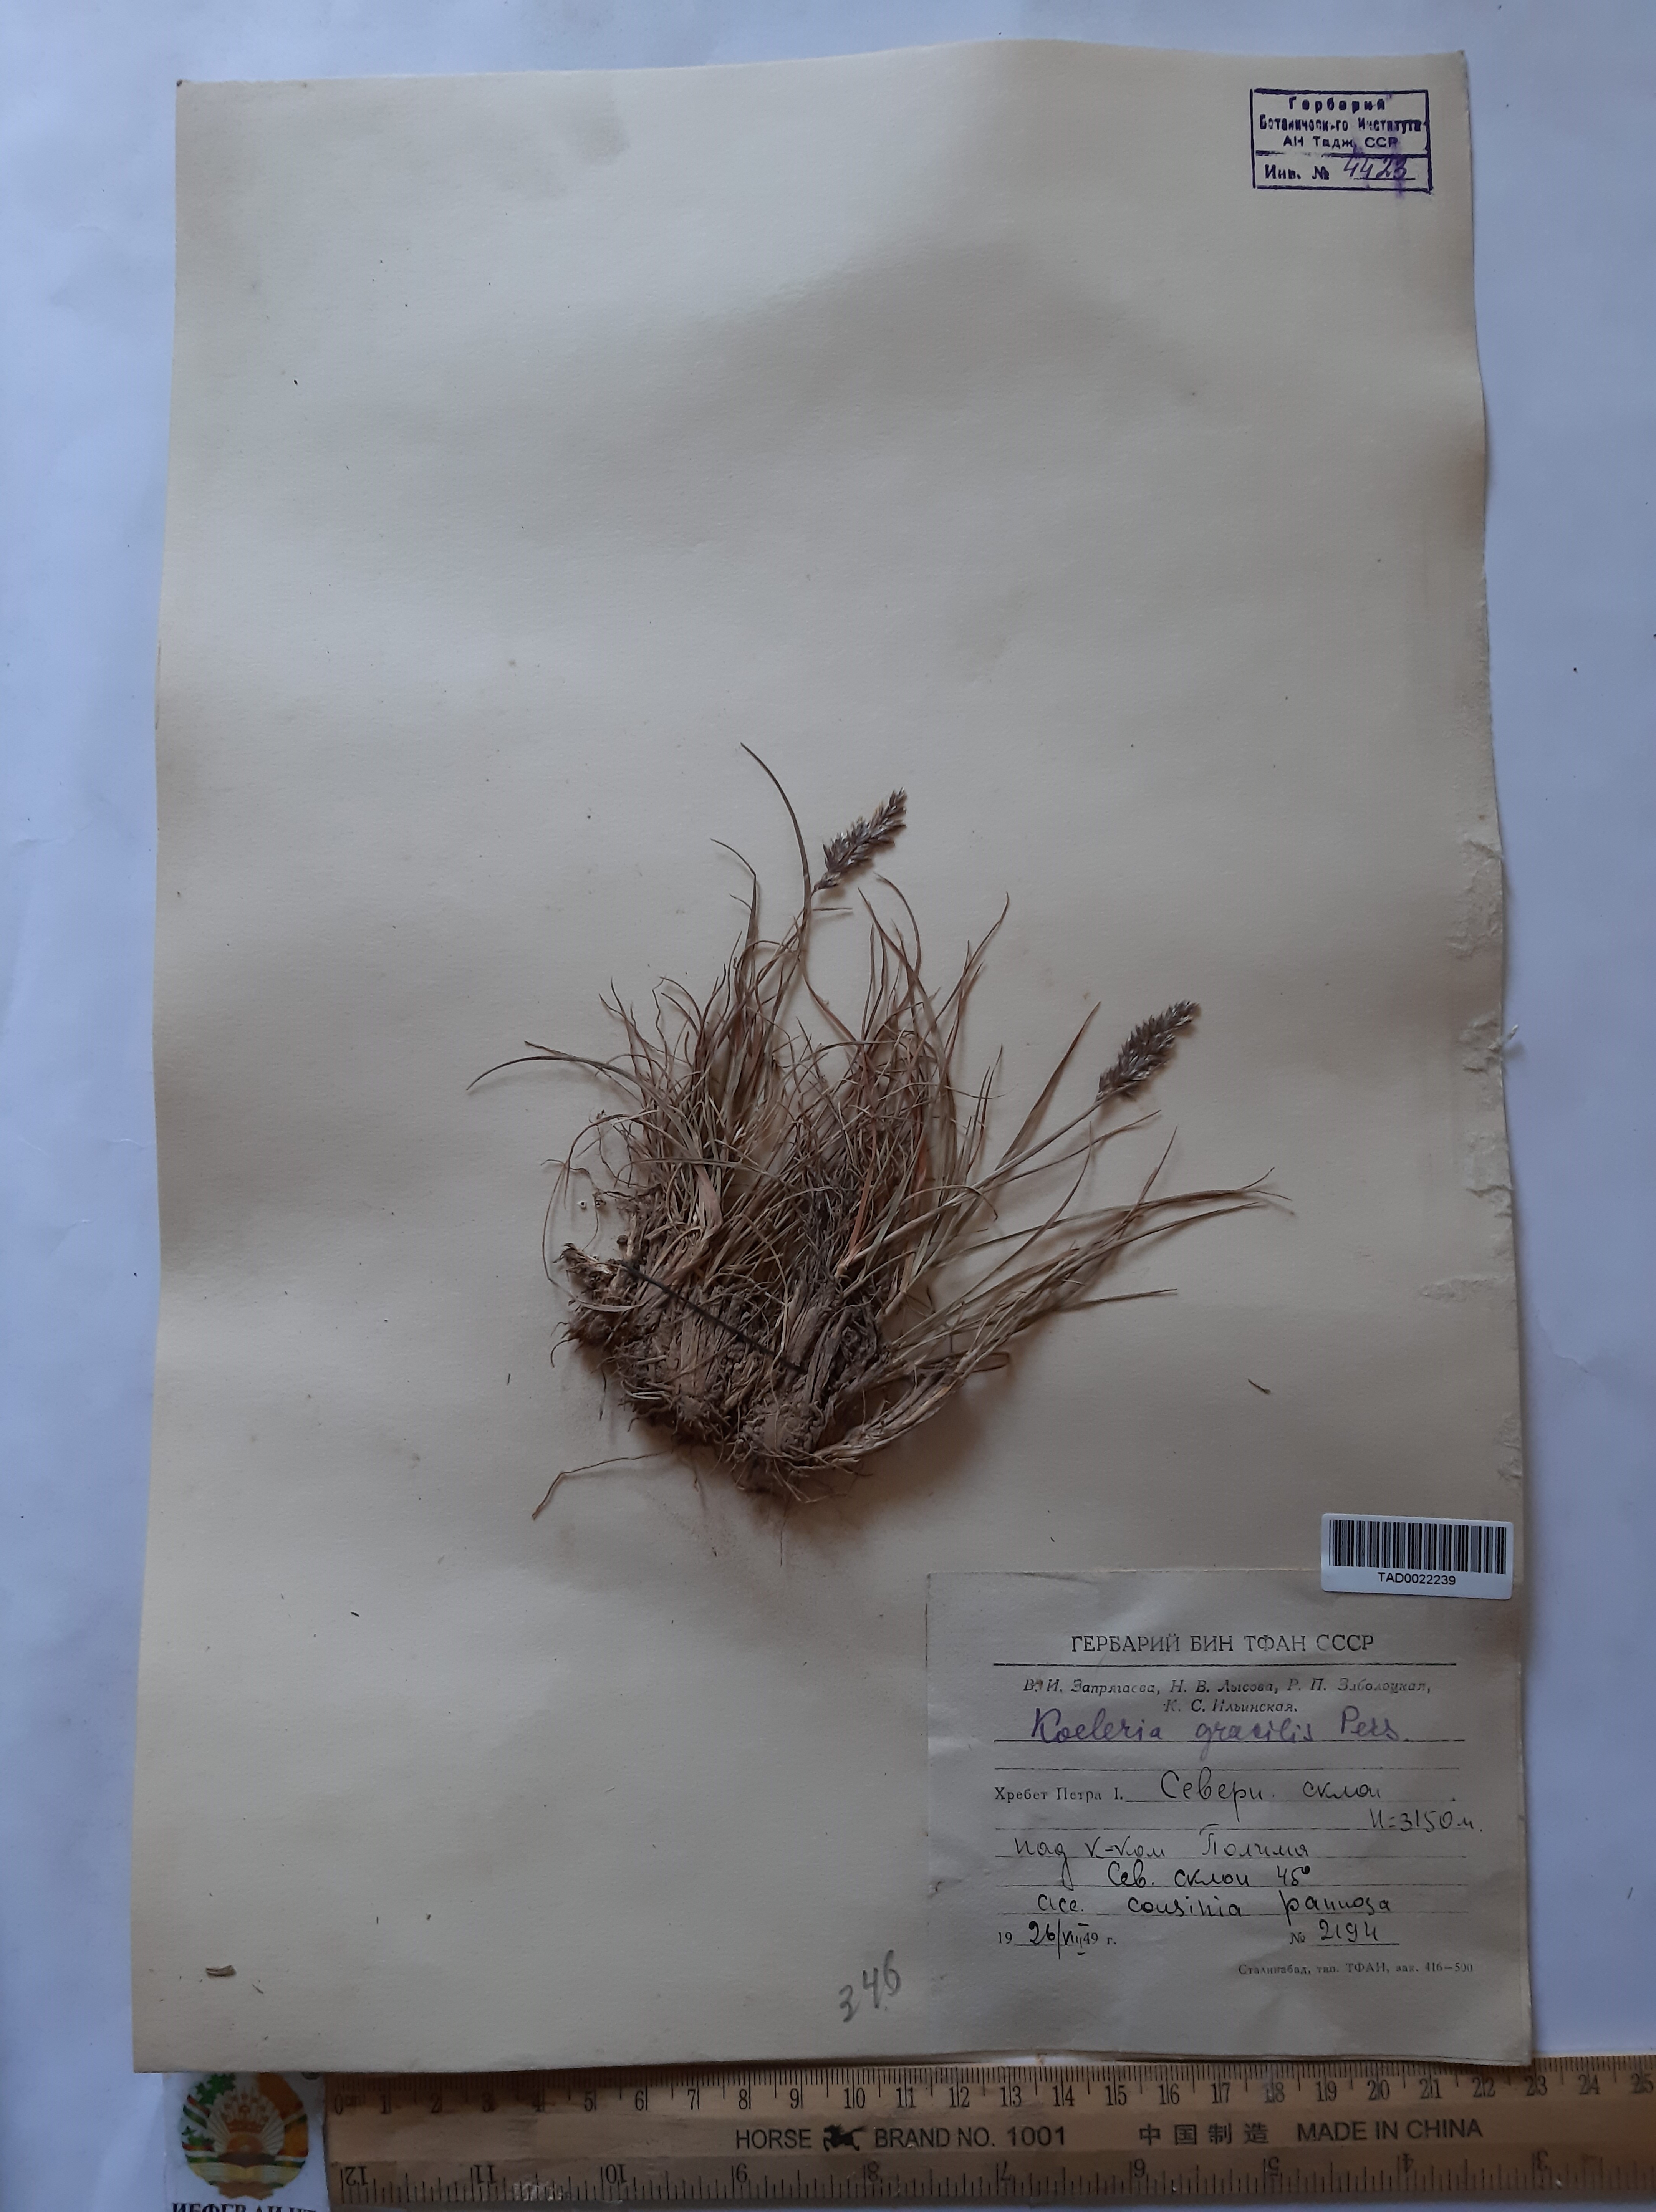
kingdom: Plantae
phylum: Tracheophyta
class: Liliopsida
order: Poales
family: Poaceae
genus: Koeleria
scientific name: Koeleria macrantha
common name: Crested hair-grass
